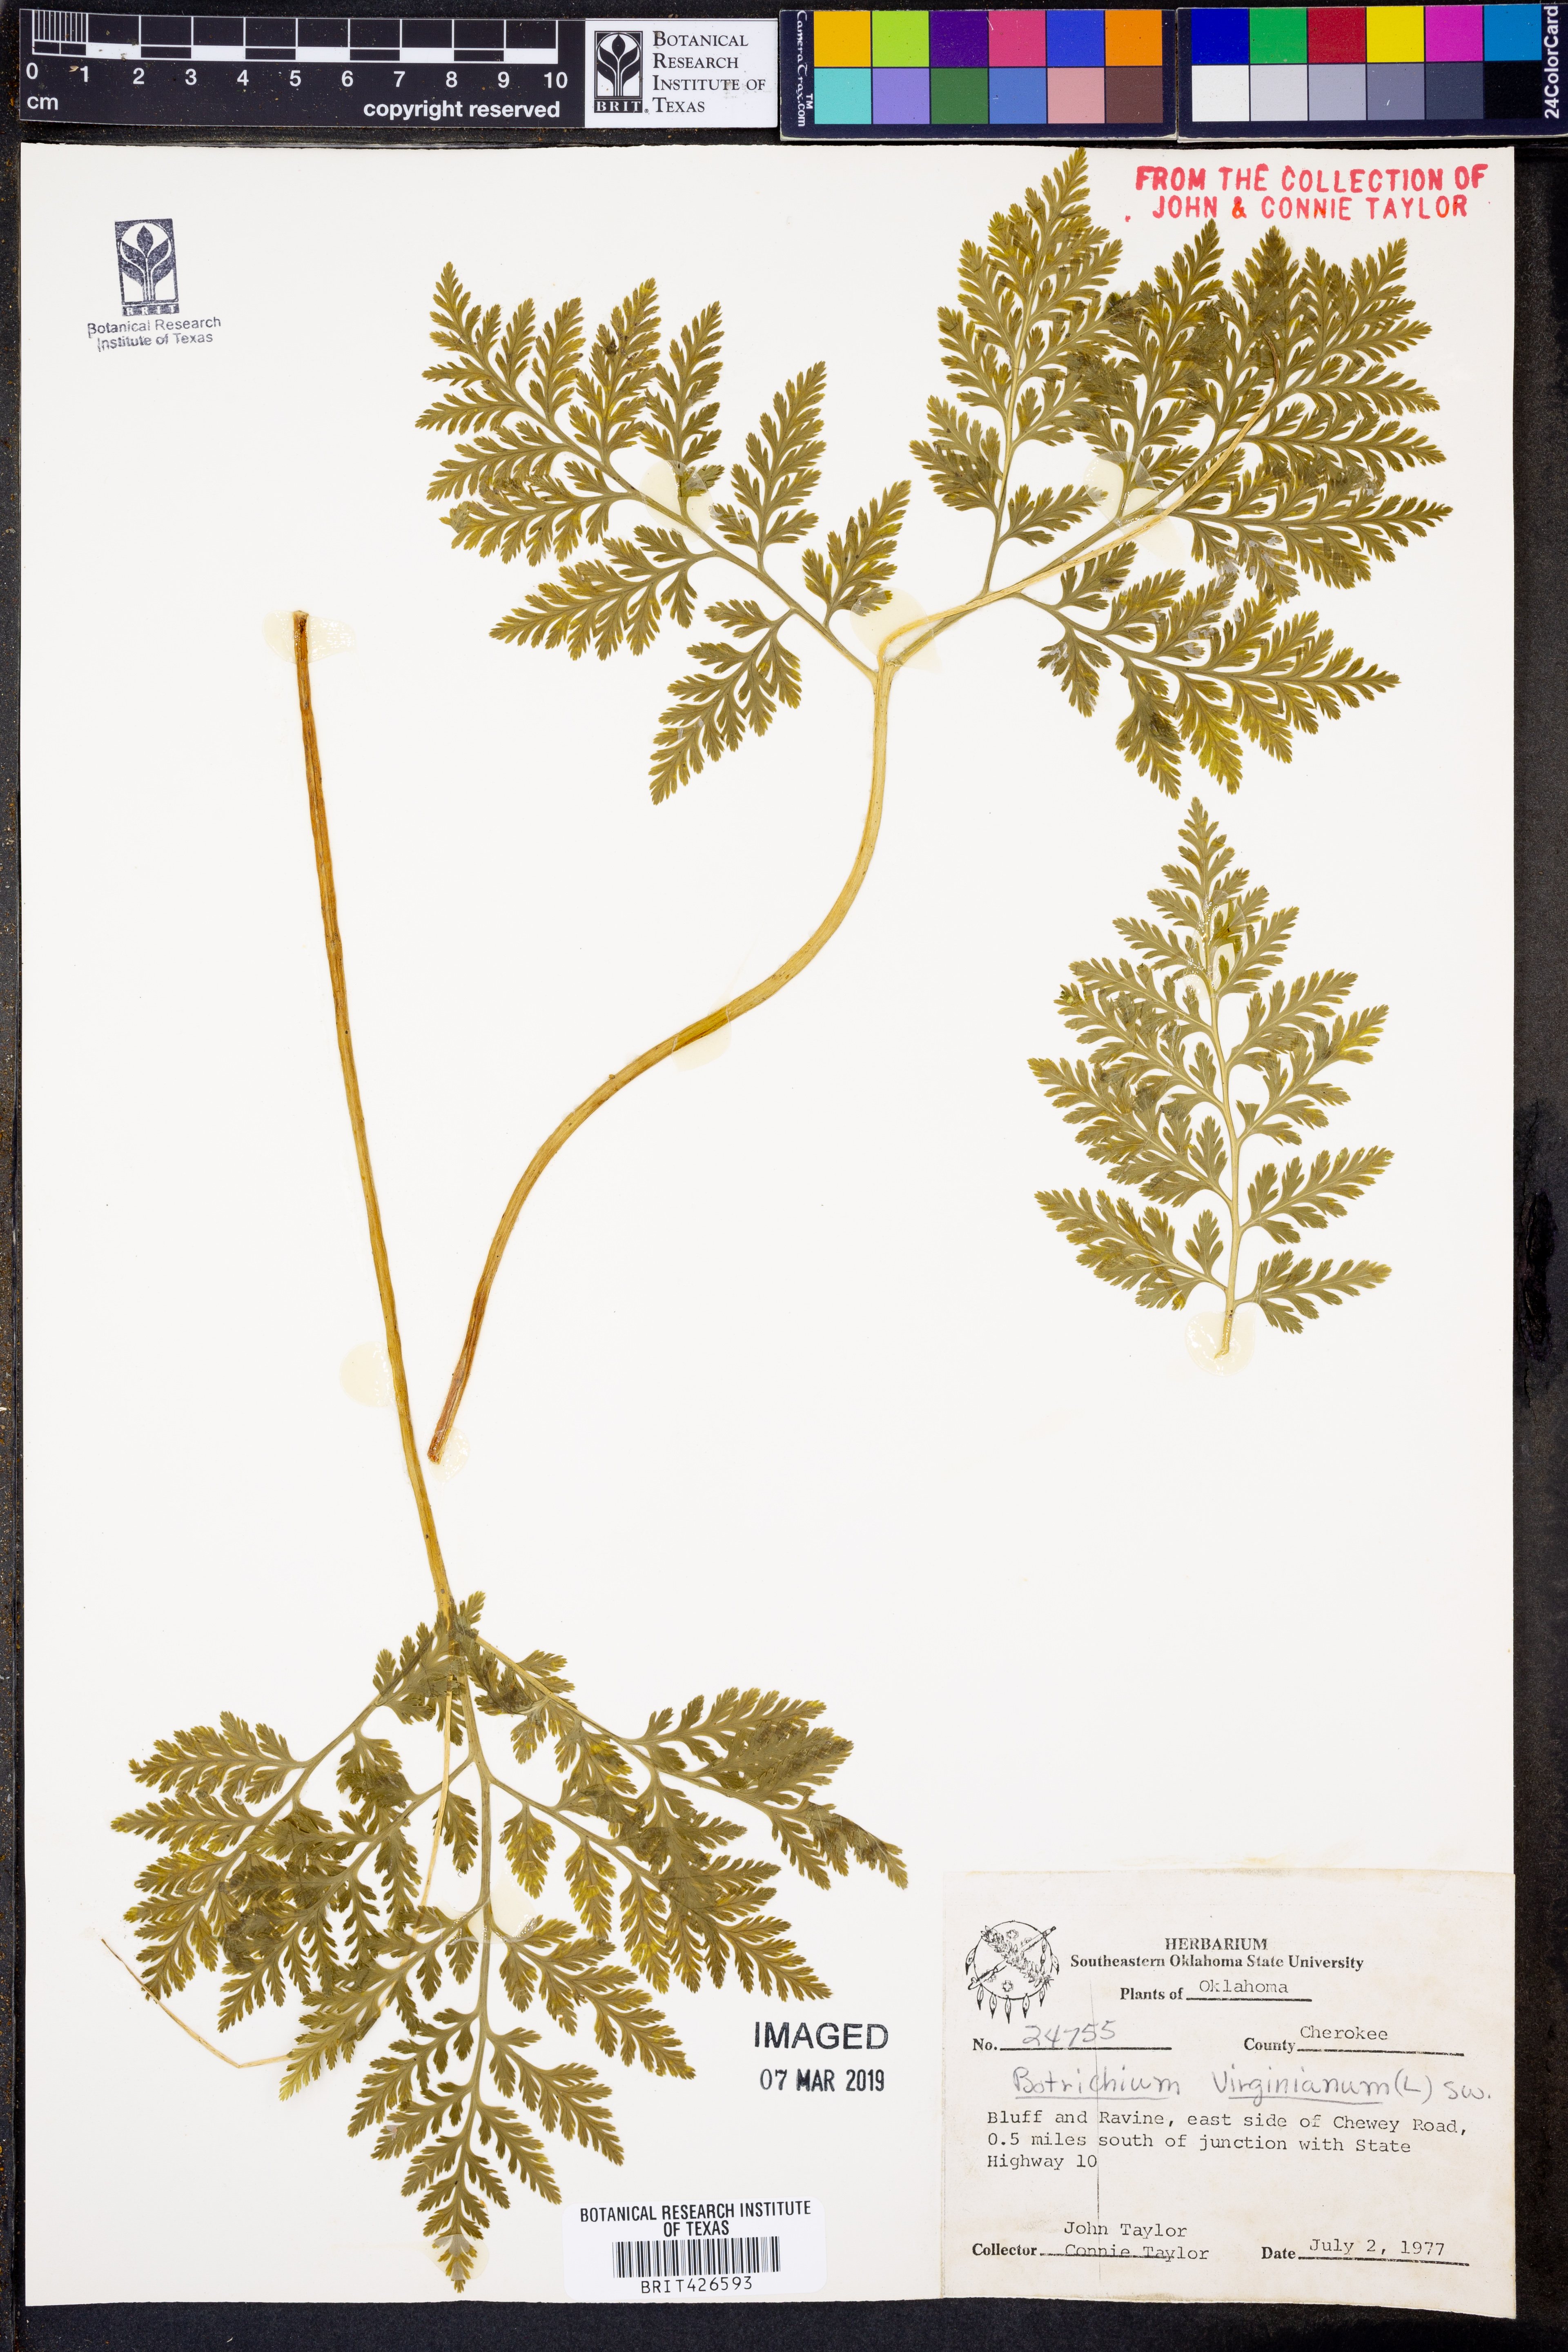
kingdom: Plantae
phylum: Tracheophyta
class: Polypodiopsida
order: Ophioglossales
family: Ophioglossaceae
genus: Botrypus
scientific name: Botrypus virginianus
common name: Common grapefern
